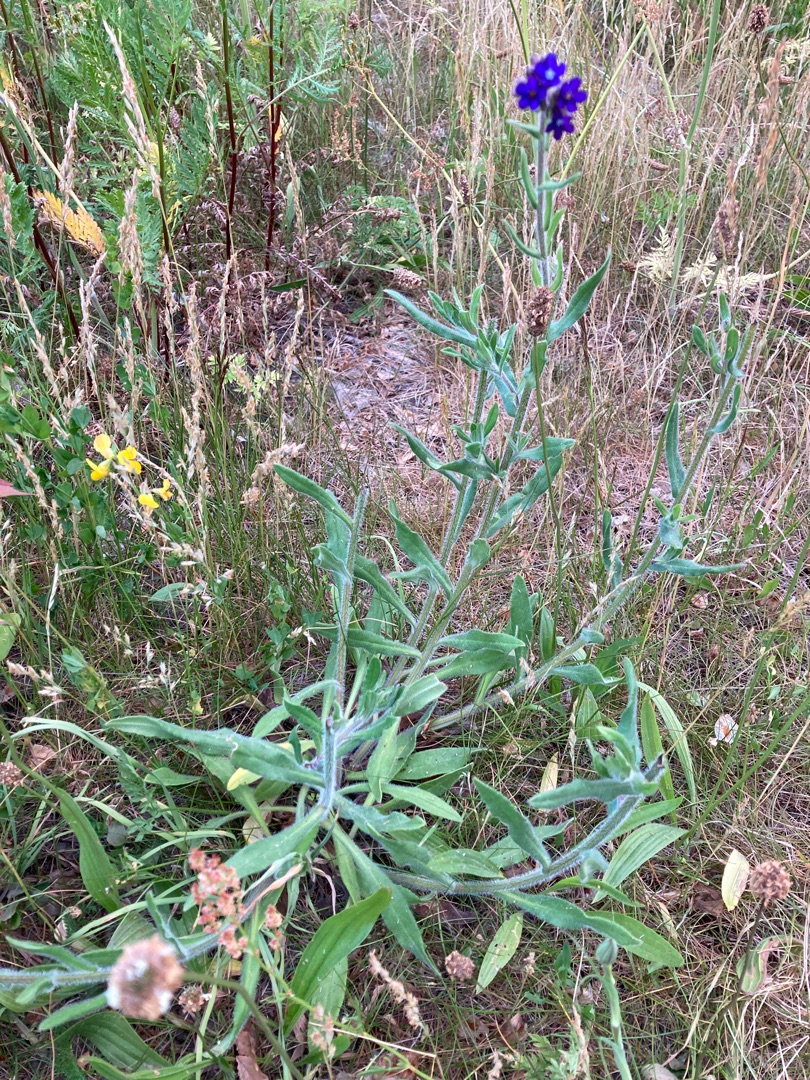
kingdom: Plantae
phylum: Tracheophyta
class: Magnoliopsida
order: Boraginales
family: Boraginaceae
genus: Anchusa
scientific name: Anchusa officinalis
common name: Læge-oksetunge
